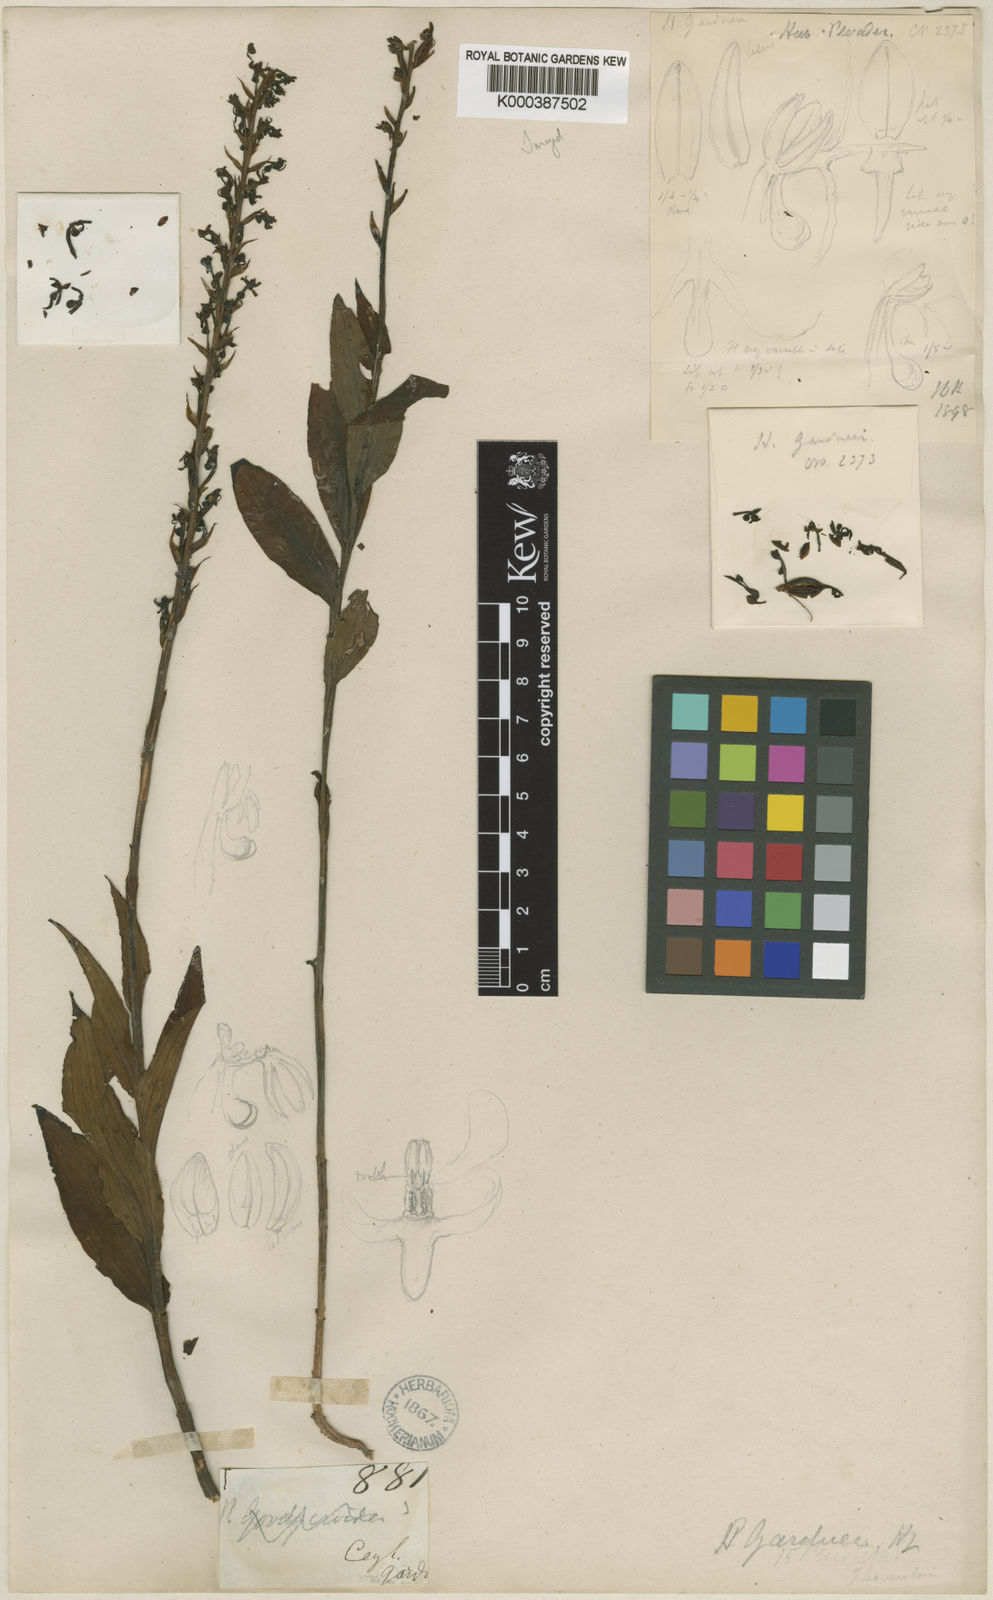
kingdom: Plantae
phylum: Tracheophyta
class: Liliopsida
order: Asparagales
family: Orchidaceae
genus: Peristylus
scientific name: Peristylus gardneri
